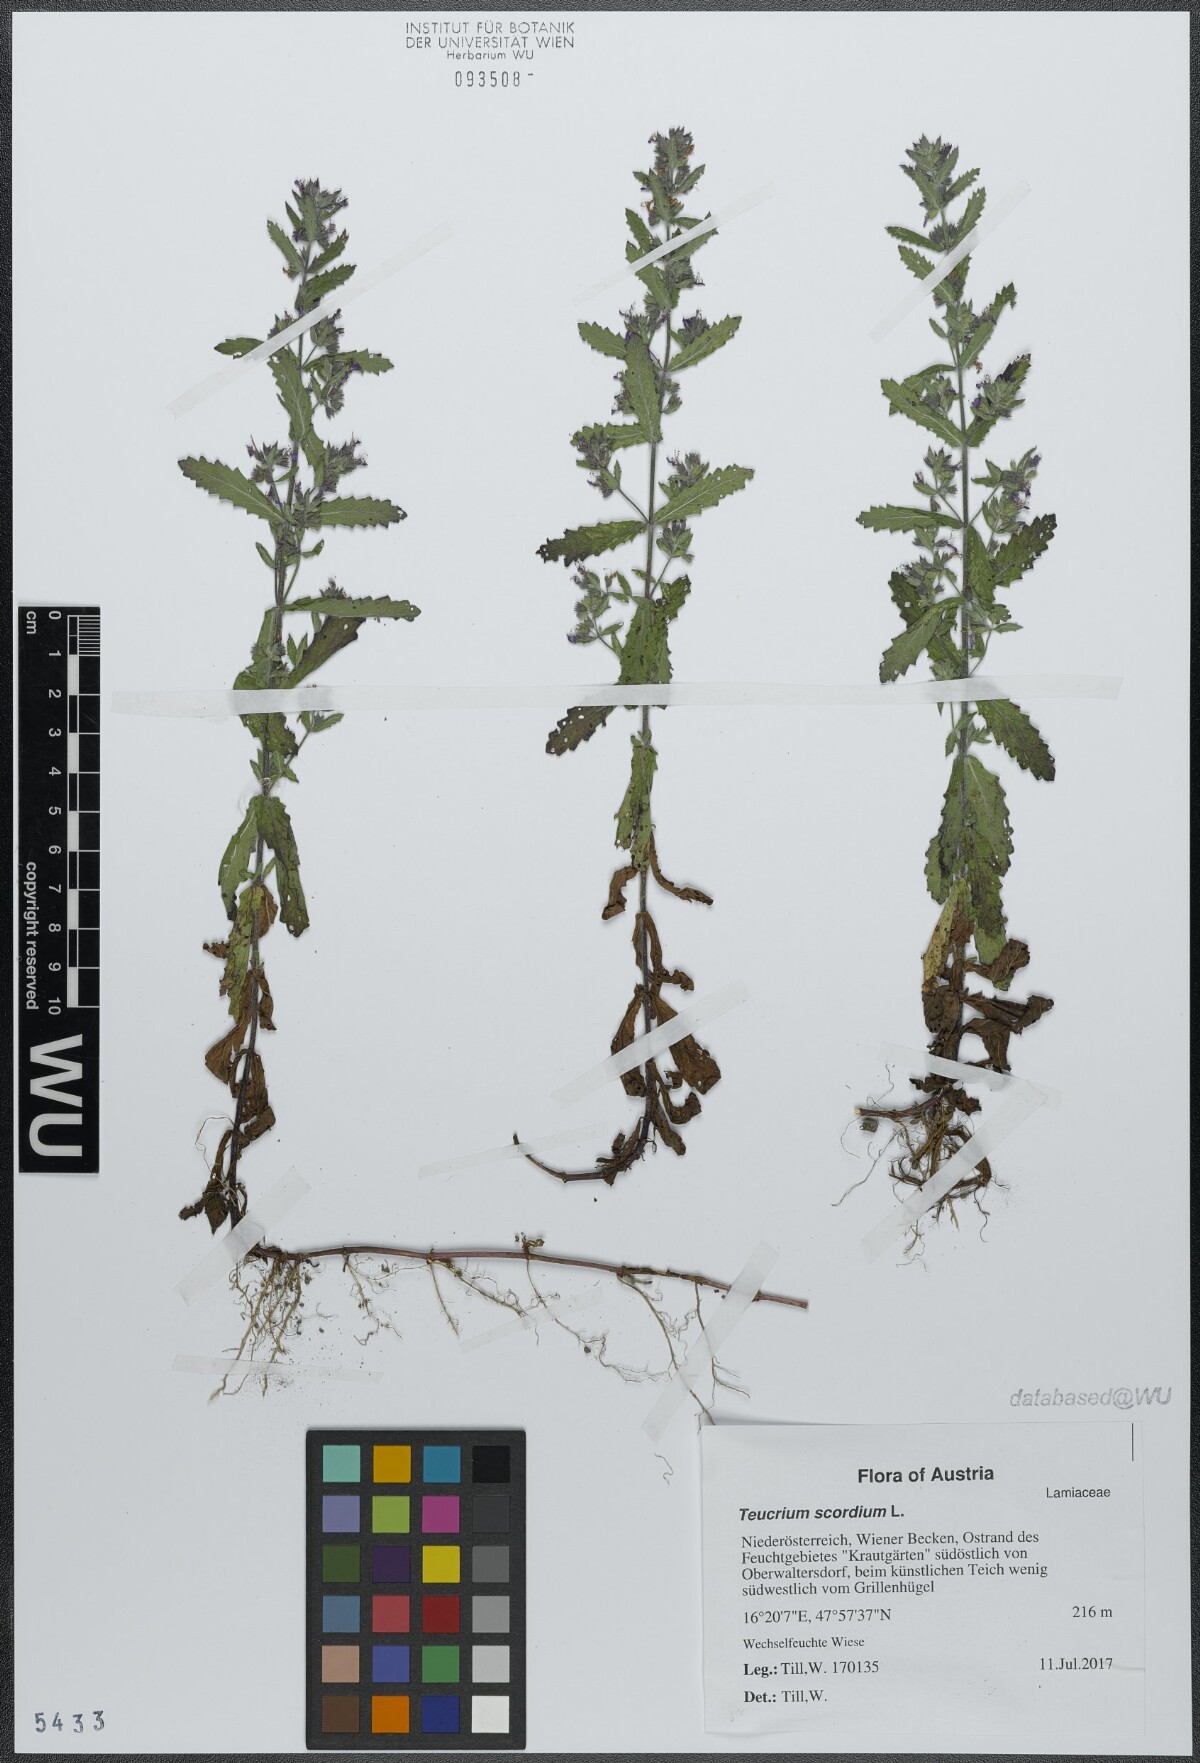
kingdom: Plantae
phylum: Tracheophyta
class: Magnoliopsida
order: Lamiales
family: Lamiaceae
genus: Teucrium
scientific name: Teucrium scordium
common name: Water germander
